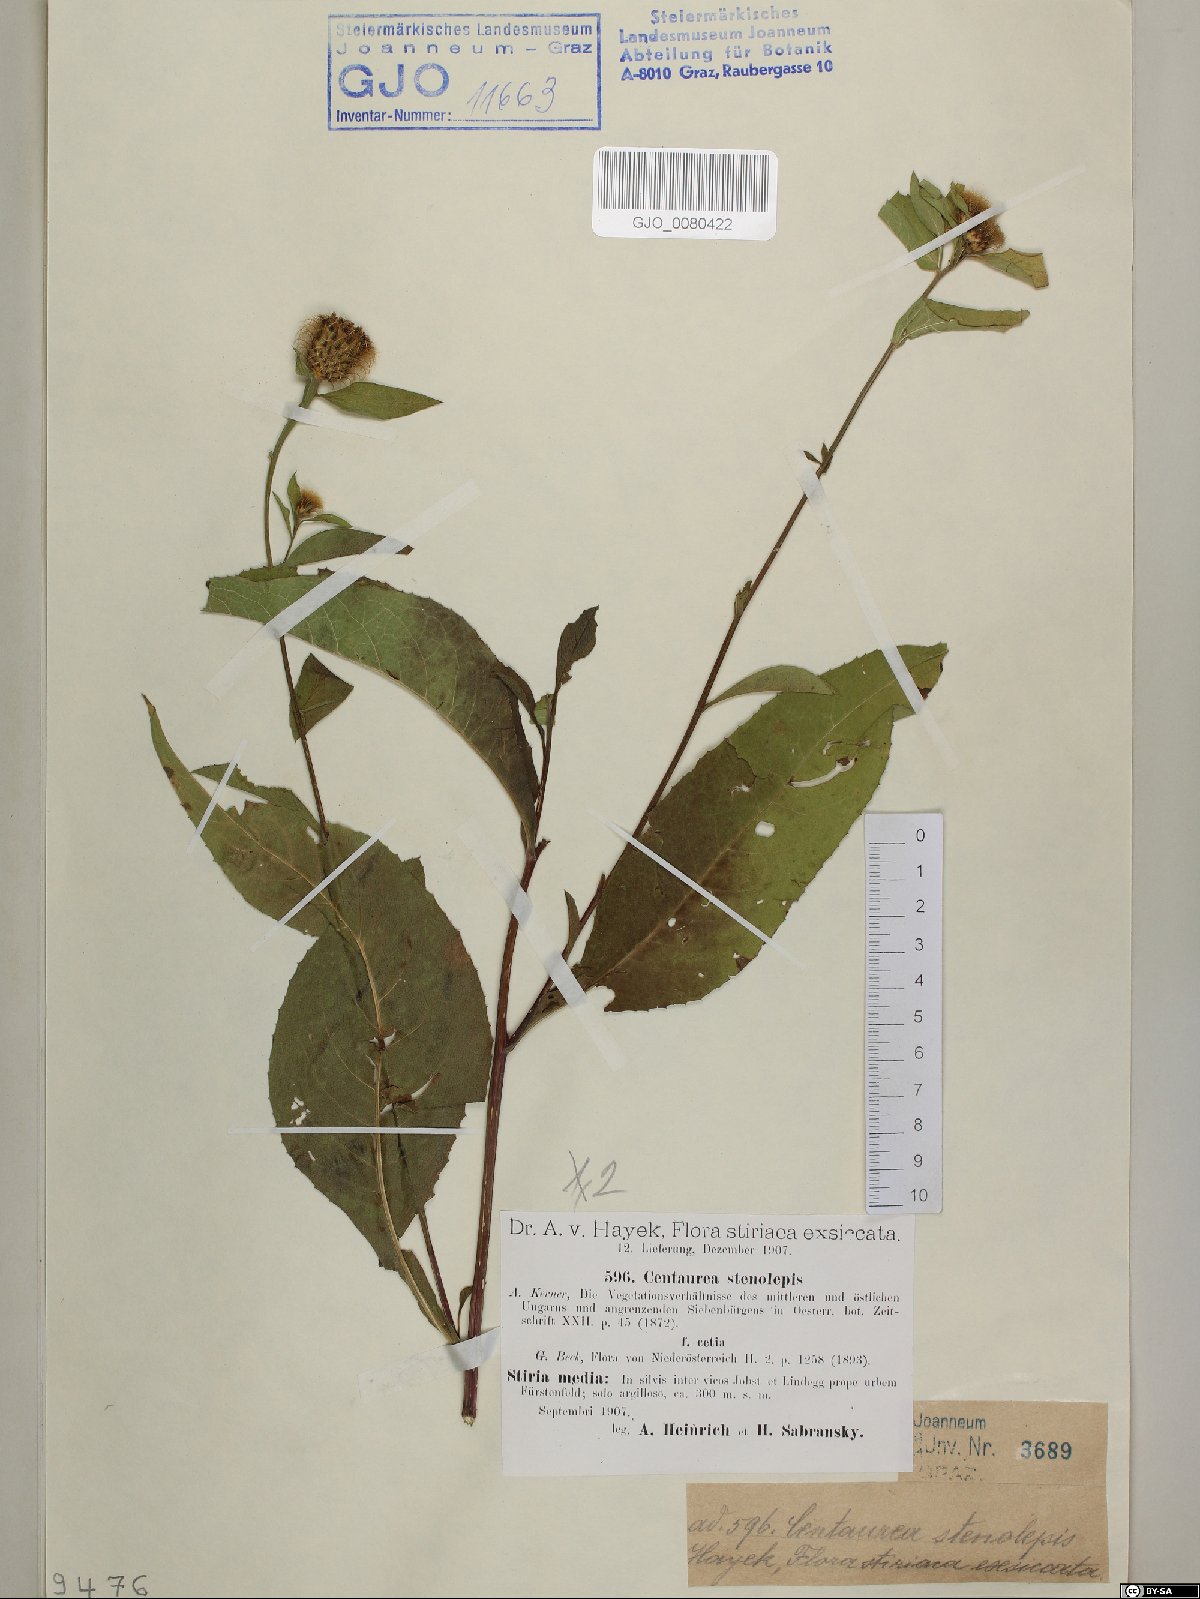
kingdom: Plantae
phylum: Tracheophyta
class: Magnoliopsida
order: Asterales
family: Asteraceae
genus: Centaurea
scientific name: Centaurea stenolepis
